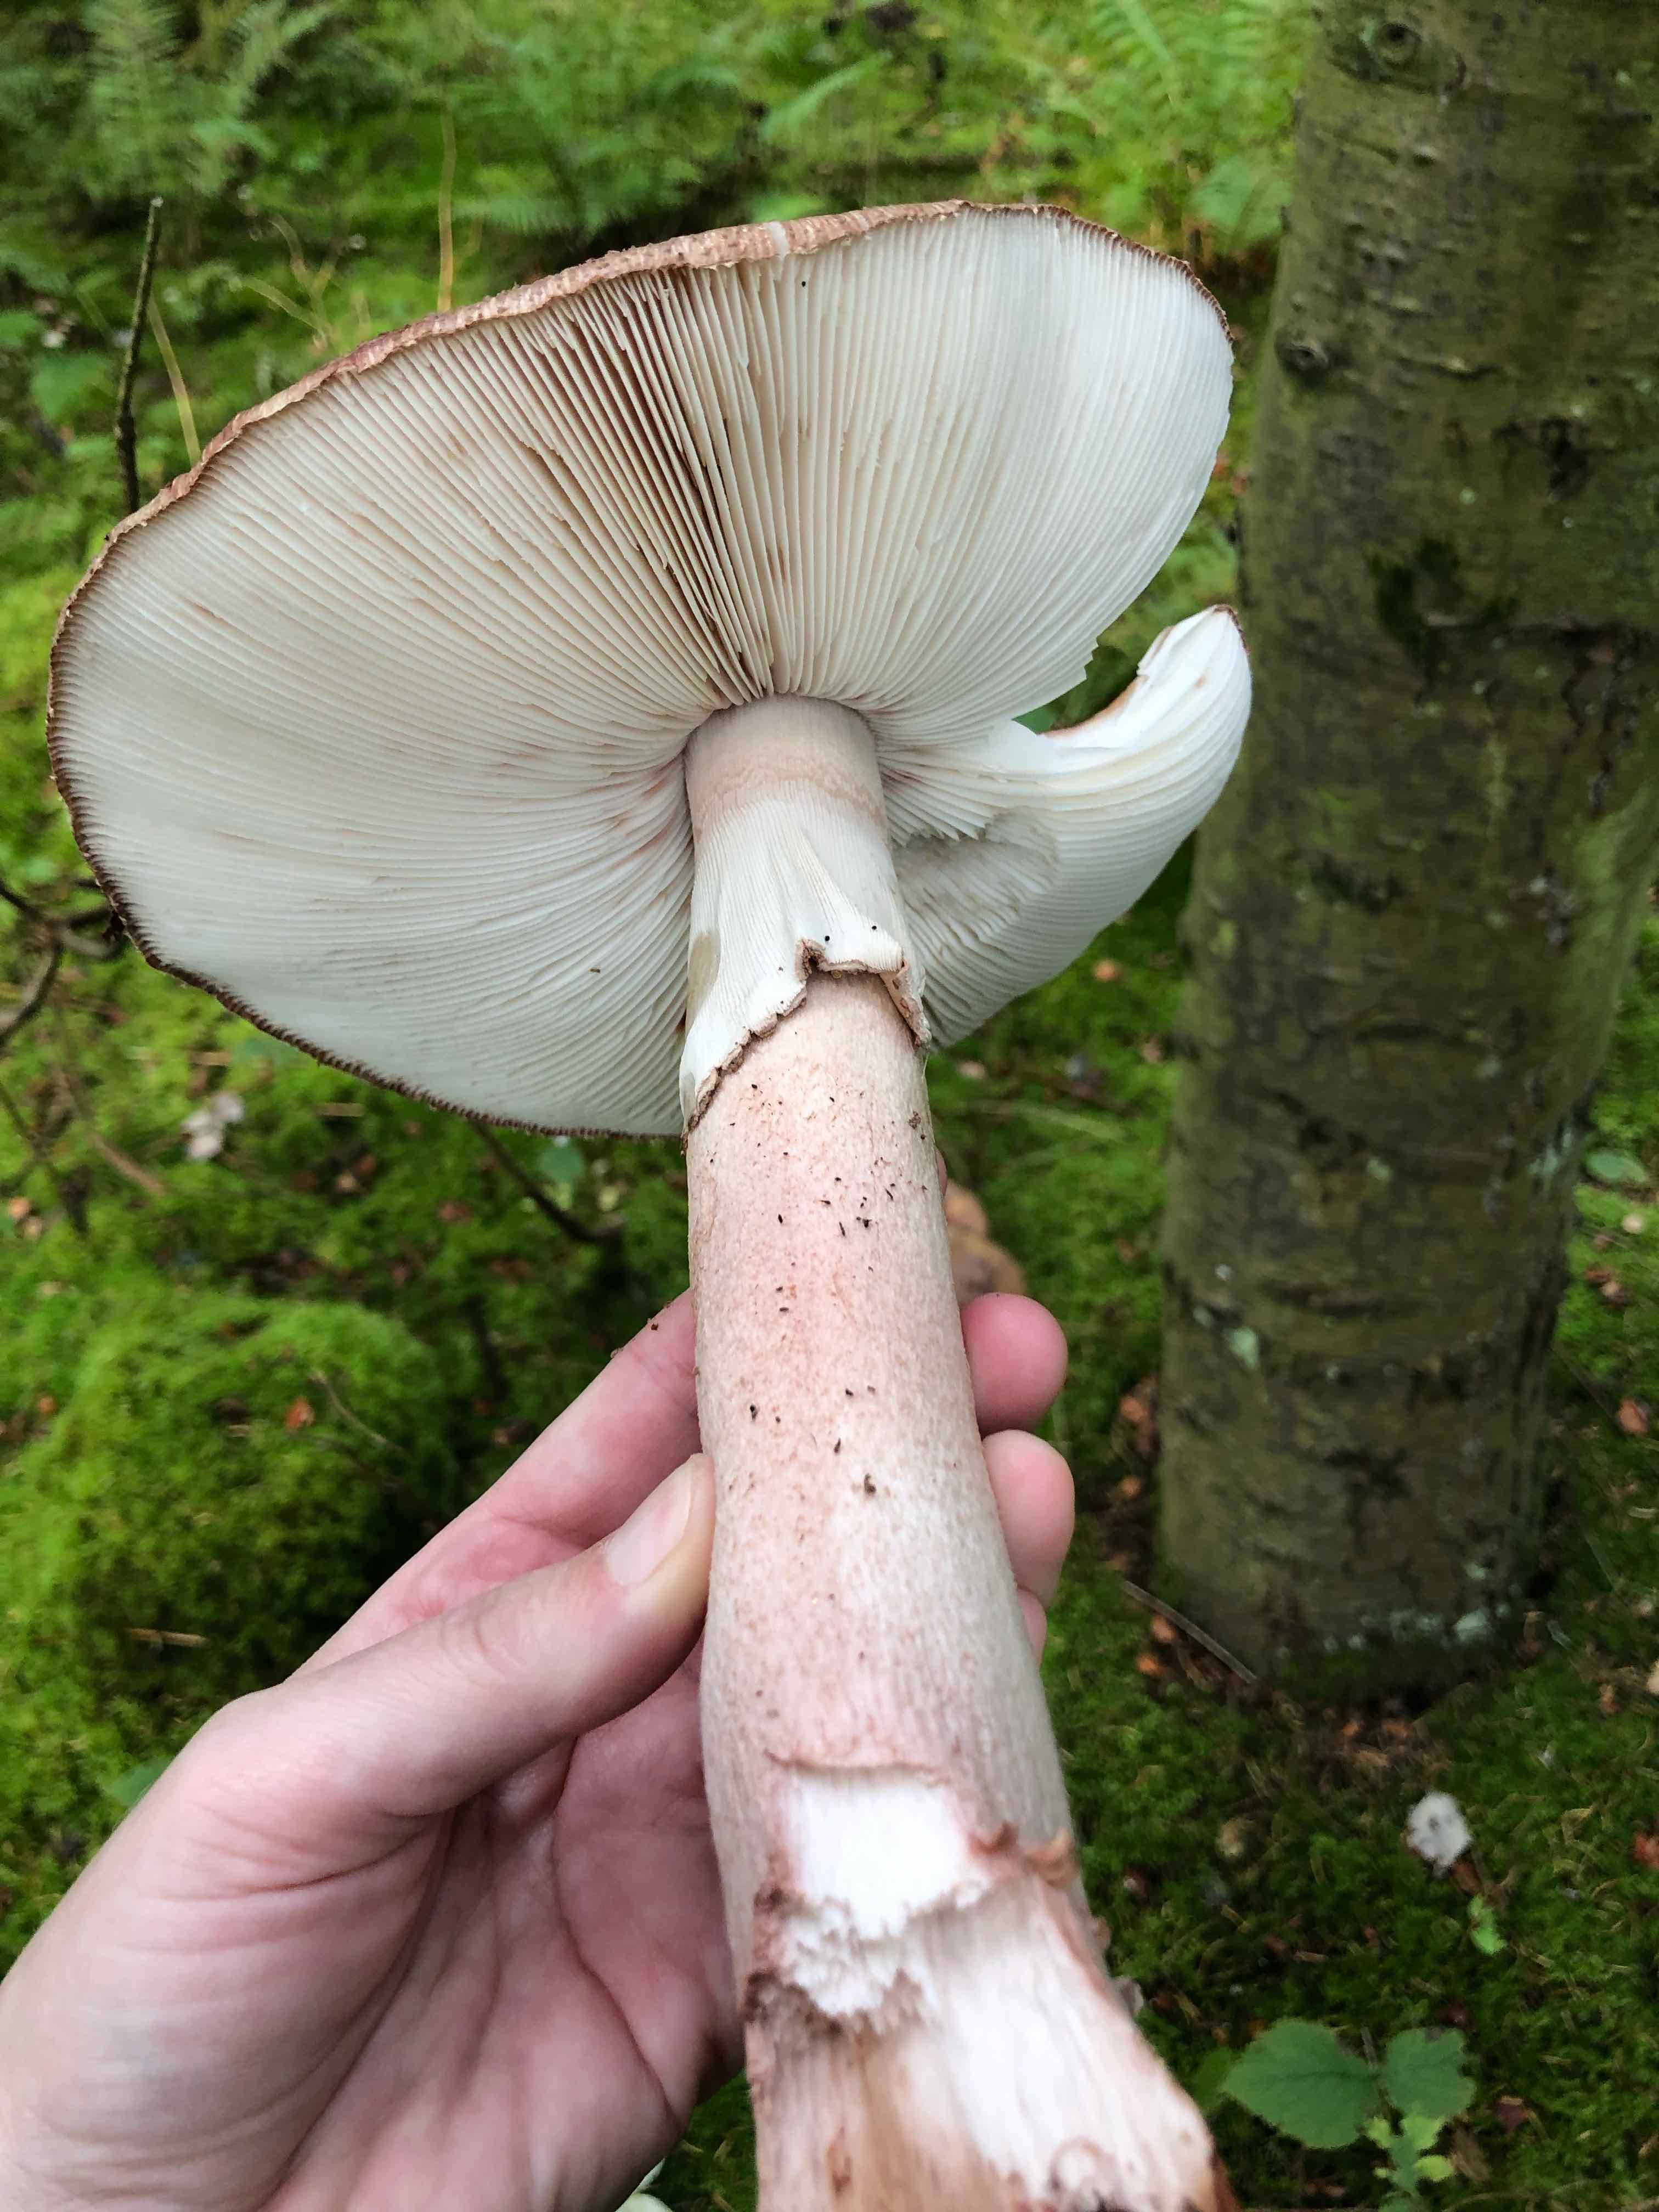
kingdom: Fungi
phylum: Basidiomycota
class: Agaricomycetes
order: Agaricales
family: Amanitaceae
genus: Amanita
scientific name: Amanita rubescens
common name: rødmende fluesvamp
